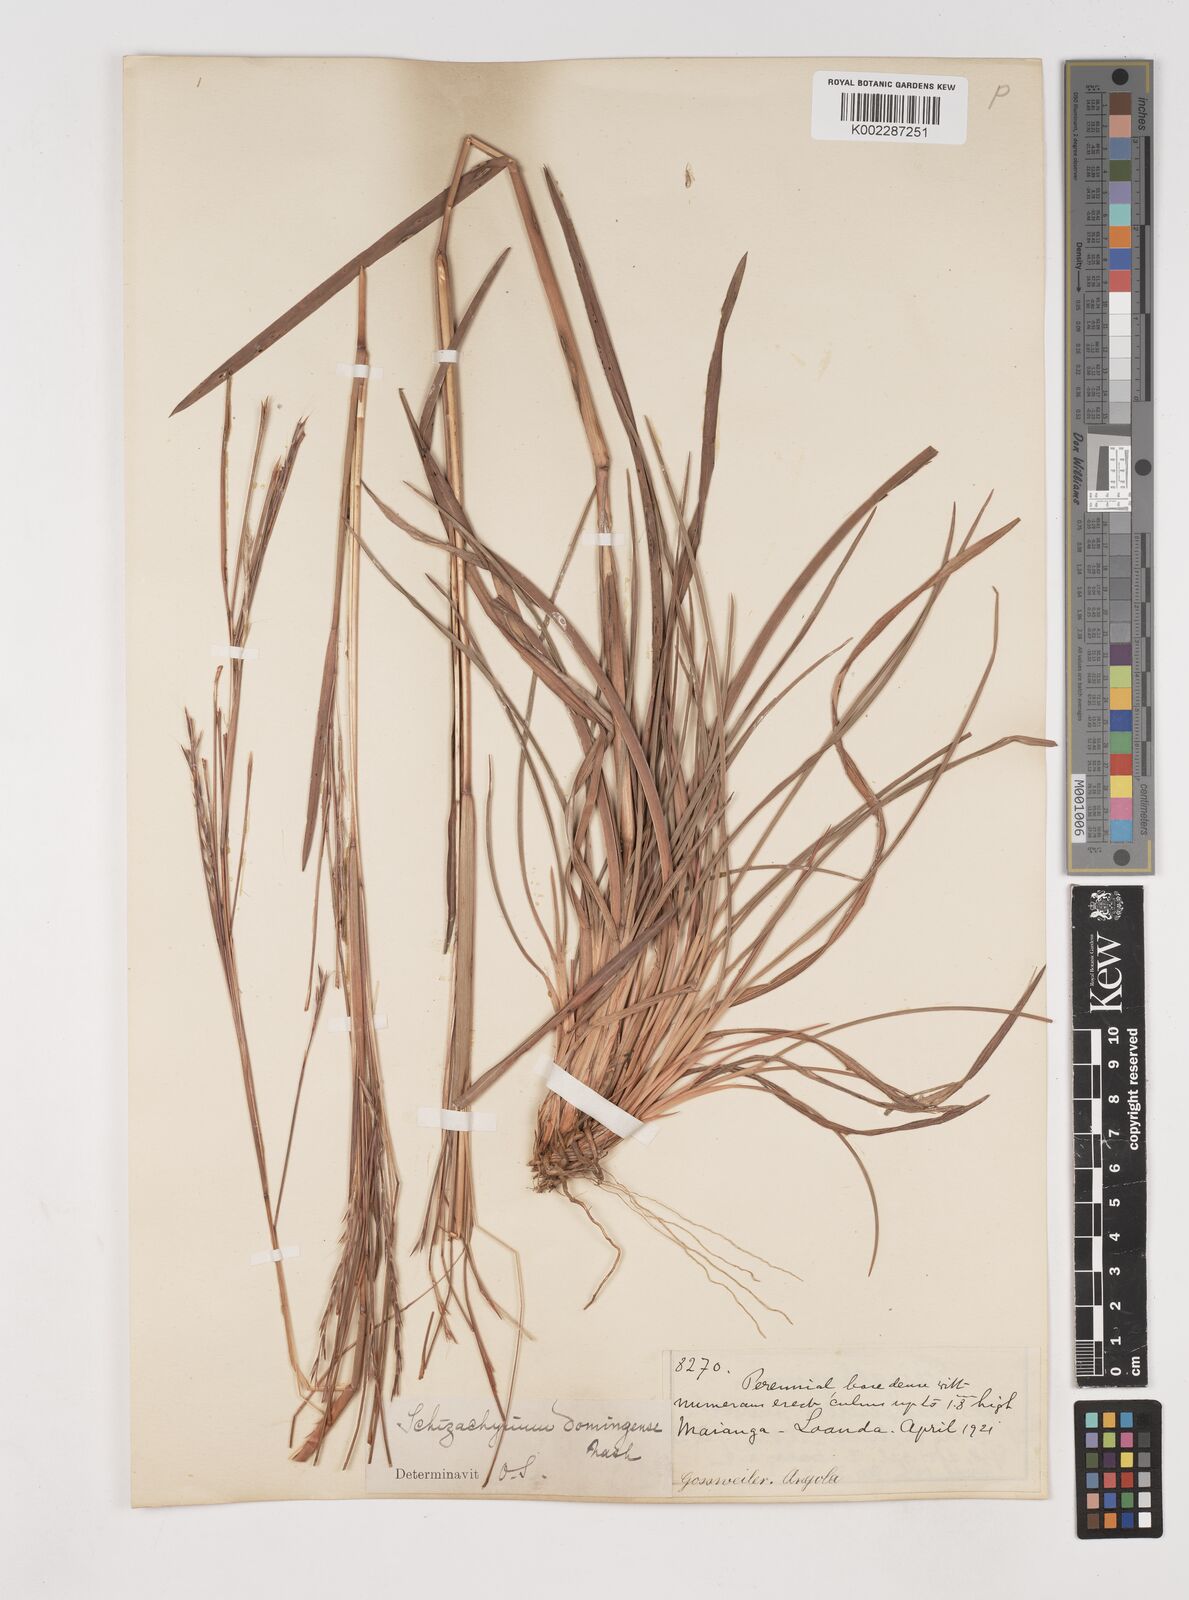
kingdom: Plantae
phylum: Tracheophyta
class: Liliopsida
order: Poales
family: Poaceae
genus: Schizachyrium
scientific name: Schizachyrium sanguineum
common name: Crimson bluestem
